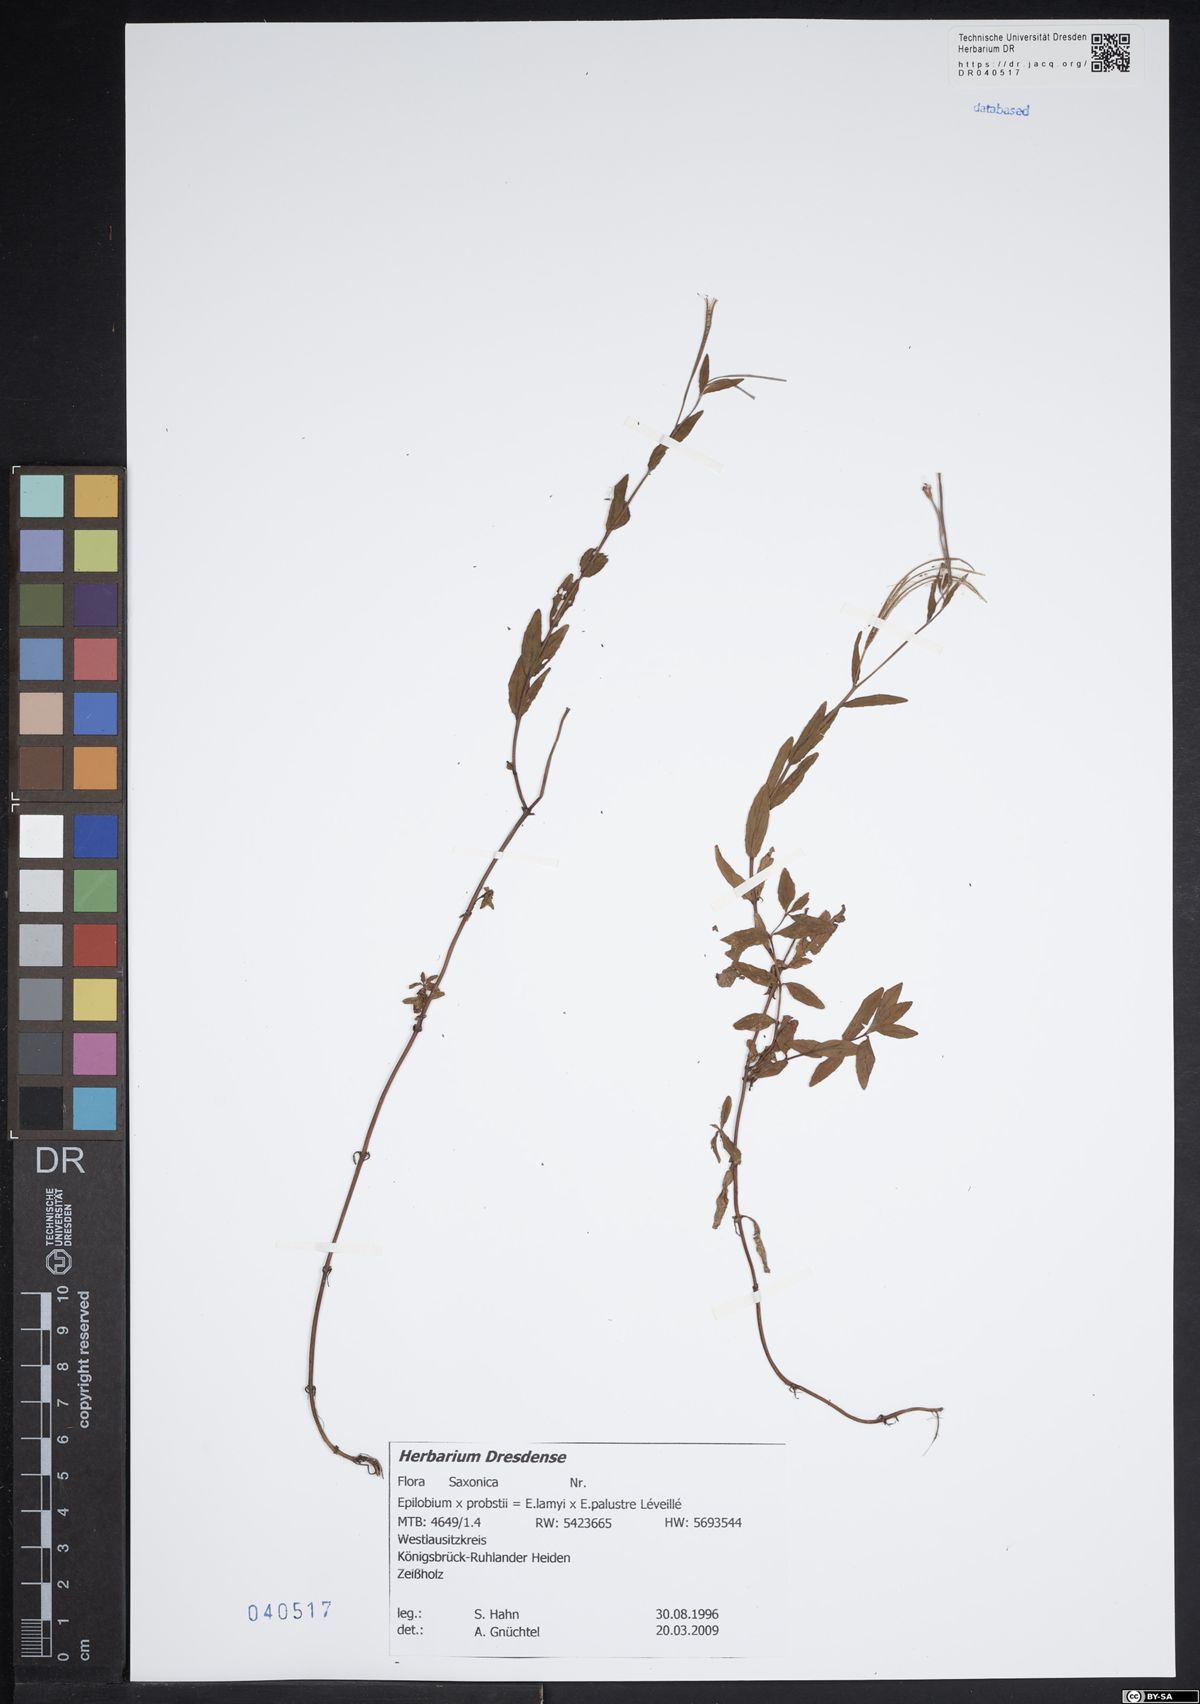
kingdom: Plantae
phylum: Tracheophyta
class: Magnoliopsida
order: Myrtales
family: Onagraceae
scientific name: Onagraceae
